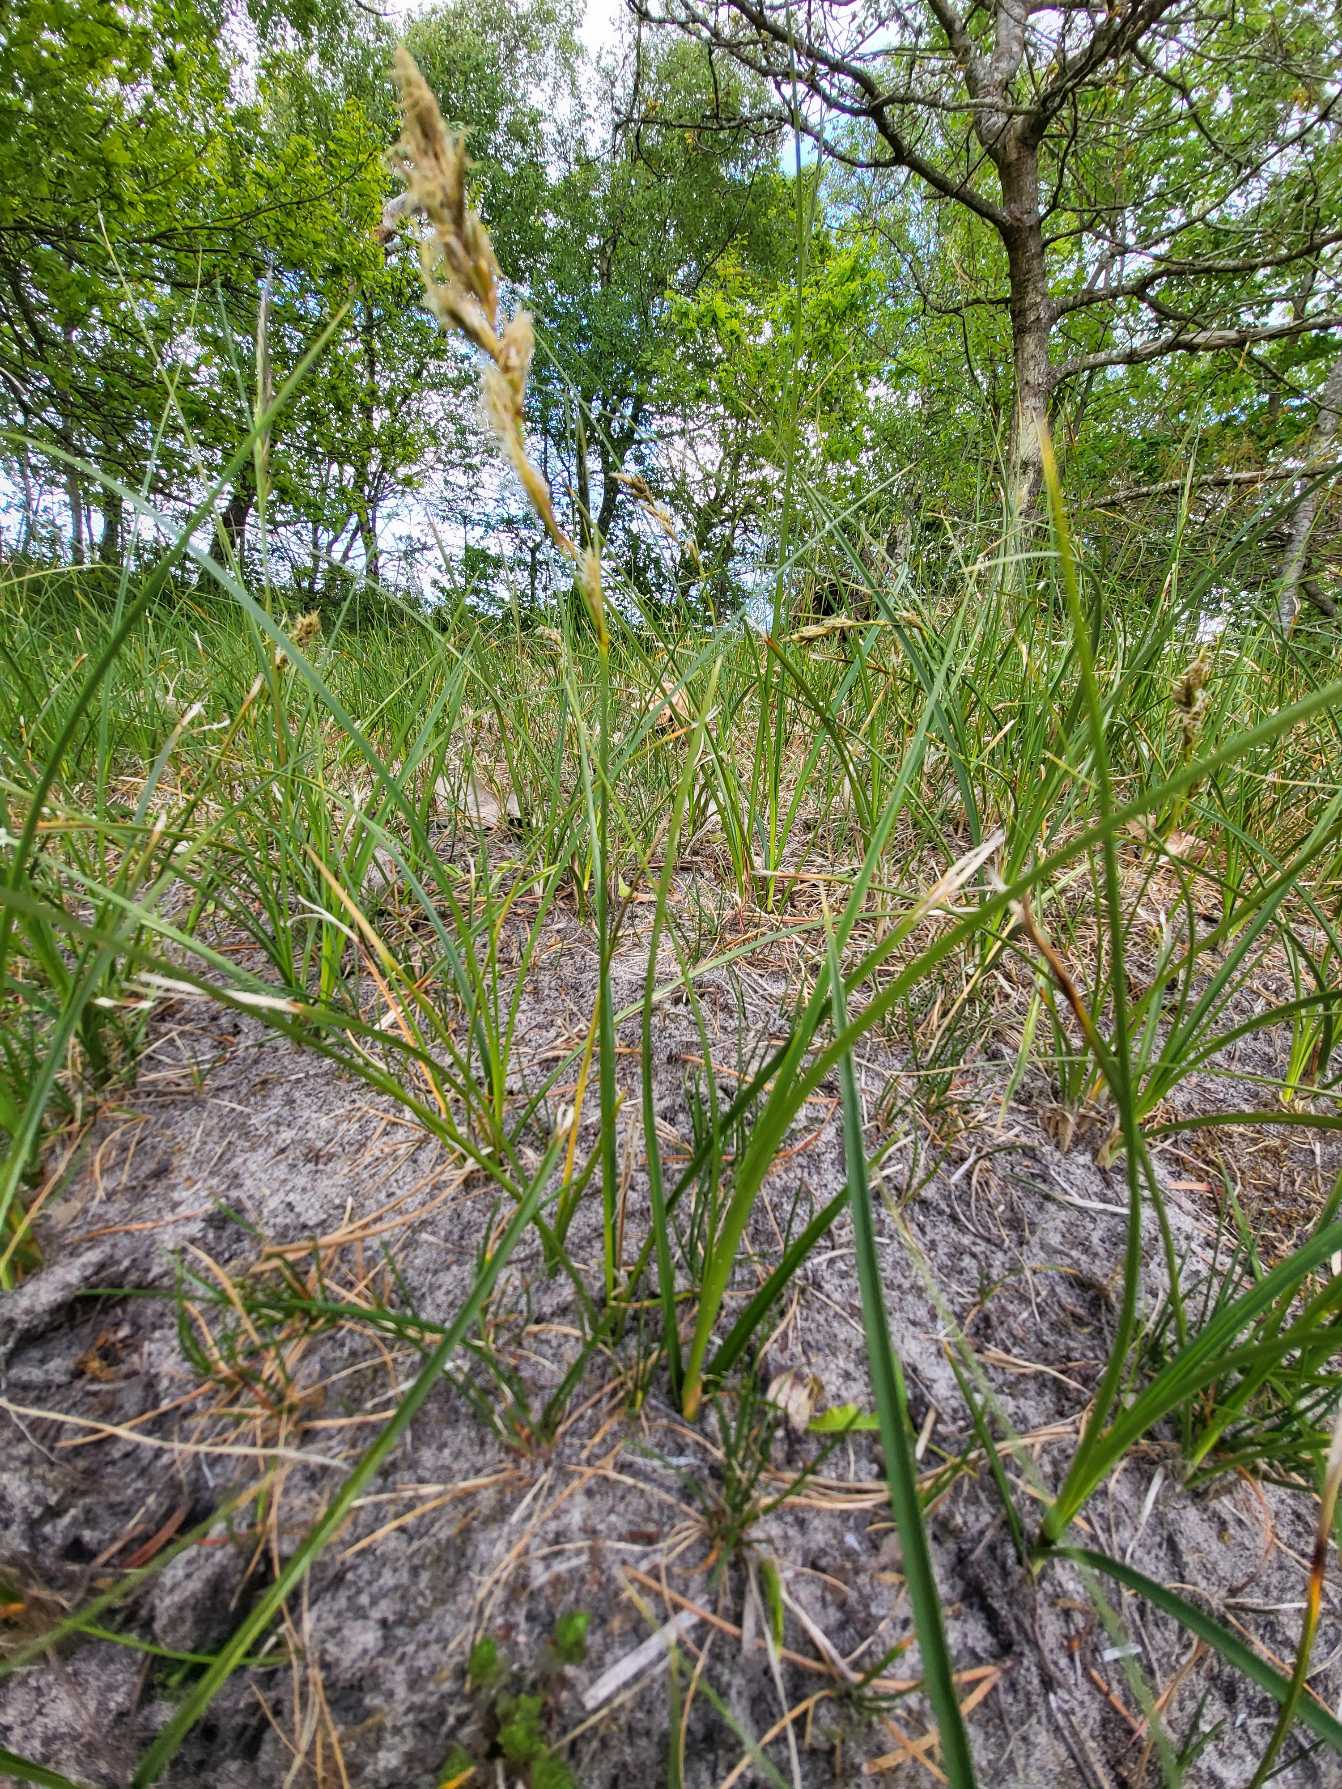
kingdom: Plantae
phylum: Tracheophyta
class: Liliopsida
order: Poales
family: Cyperaceae
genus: Carex
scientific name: Carex arenaria
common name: Sand-star
